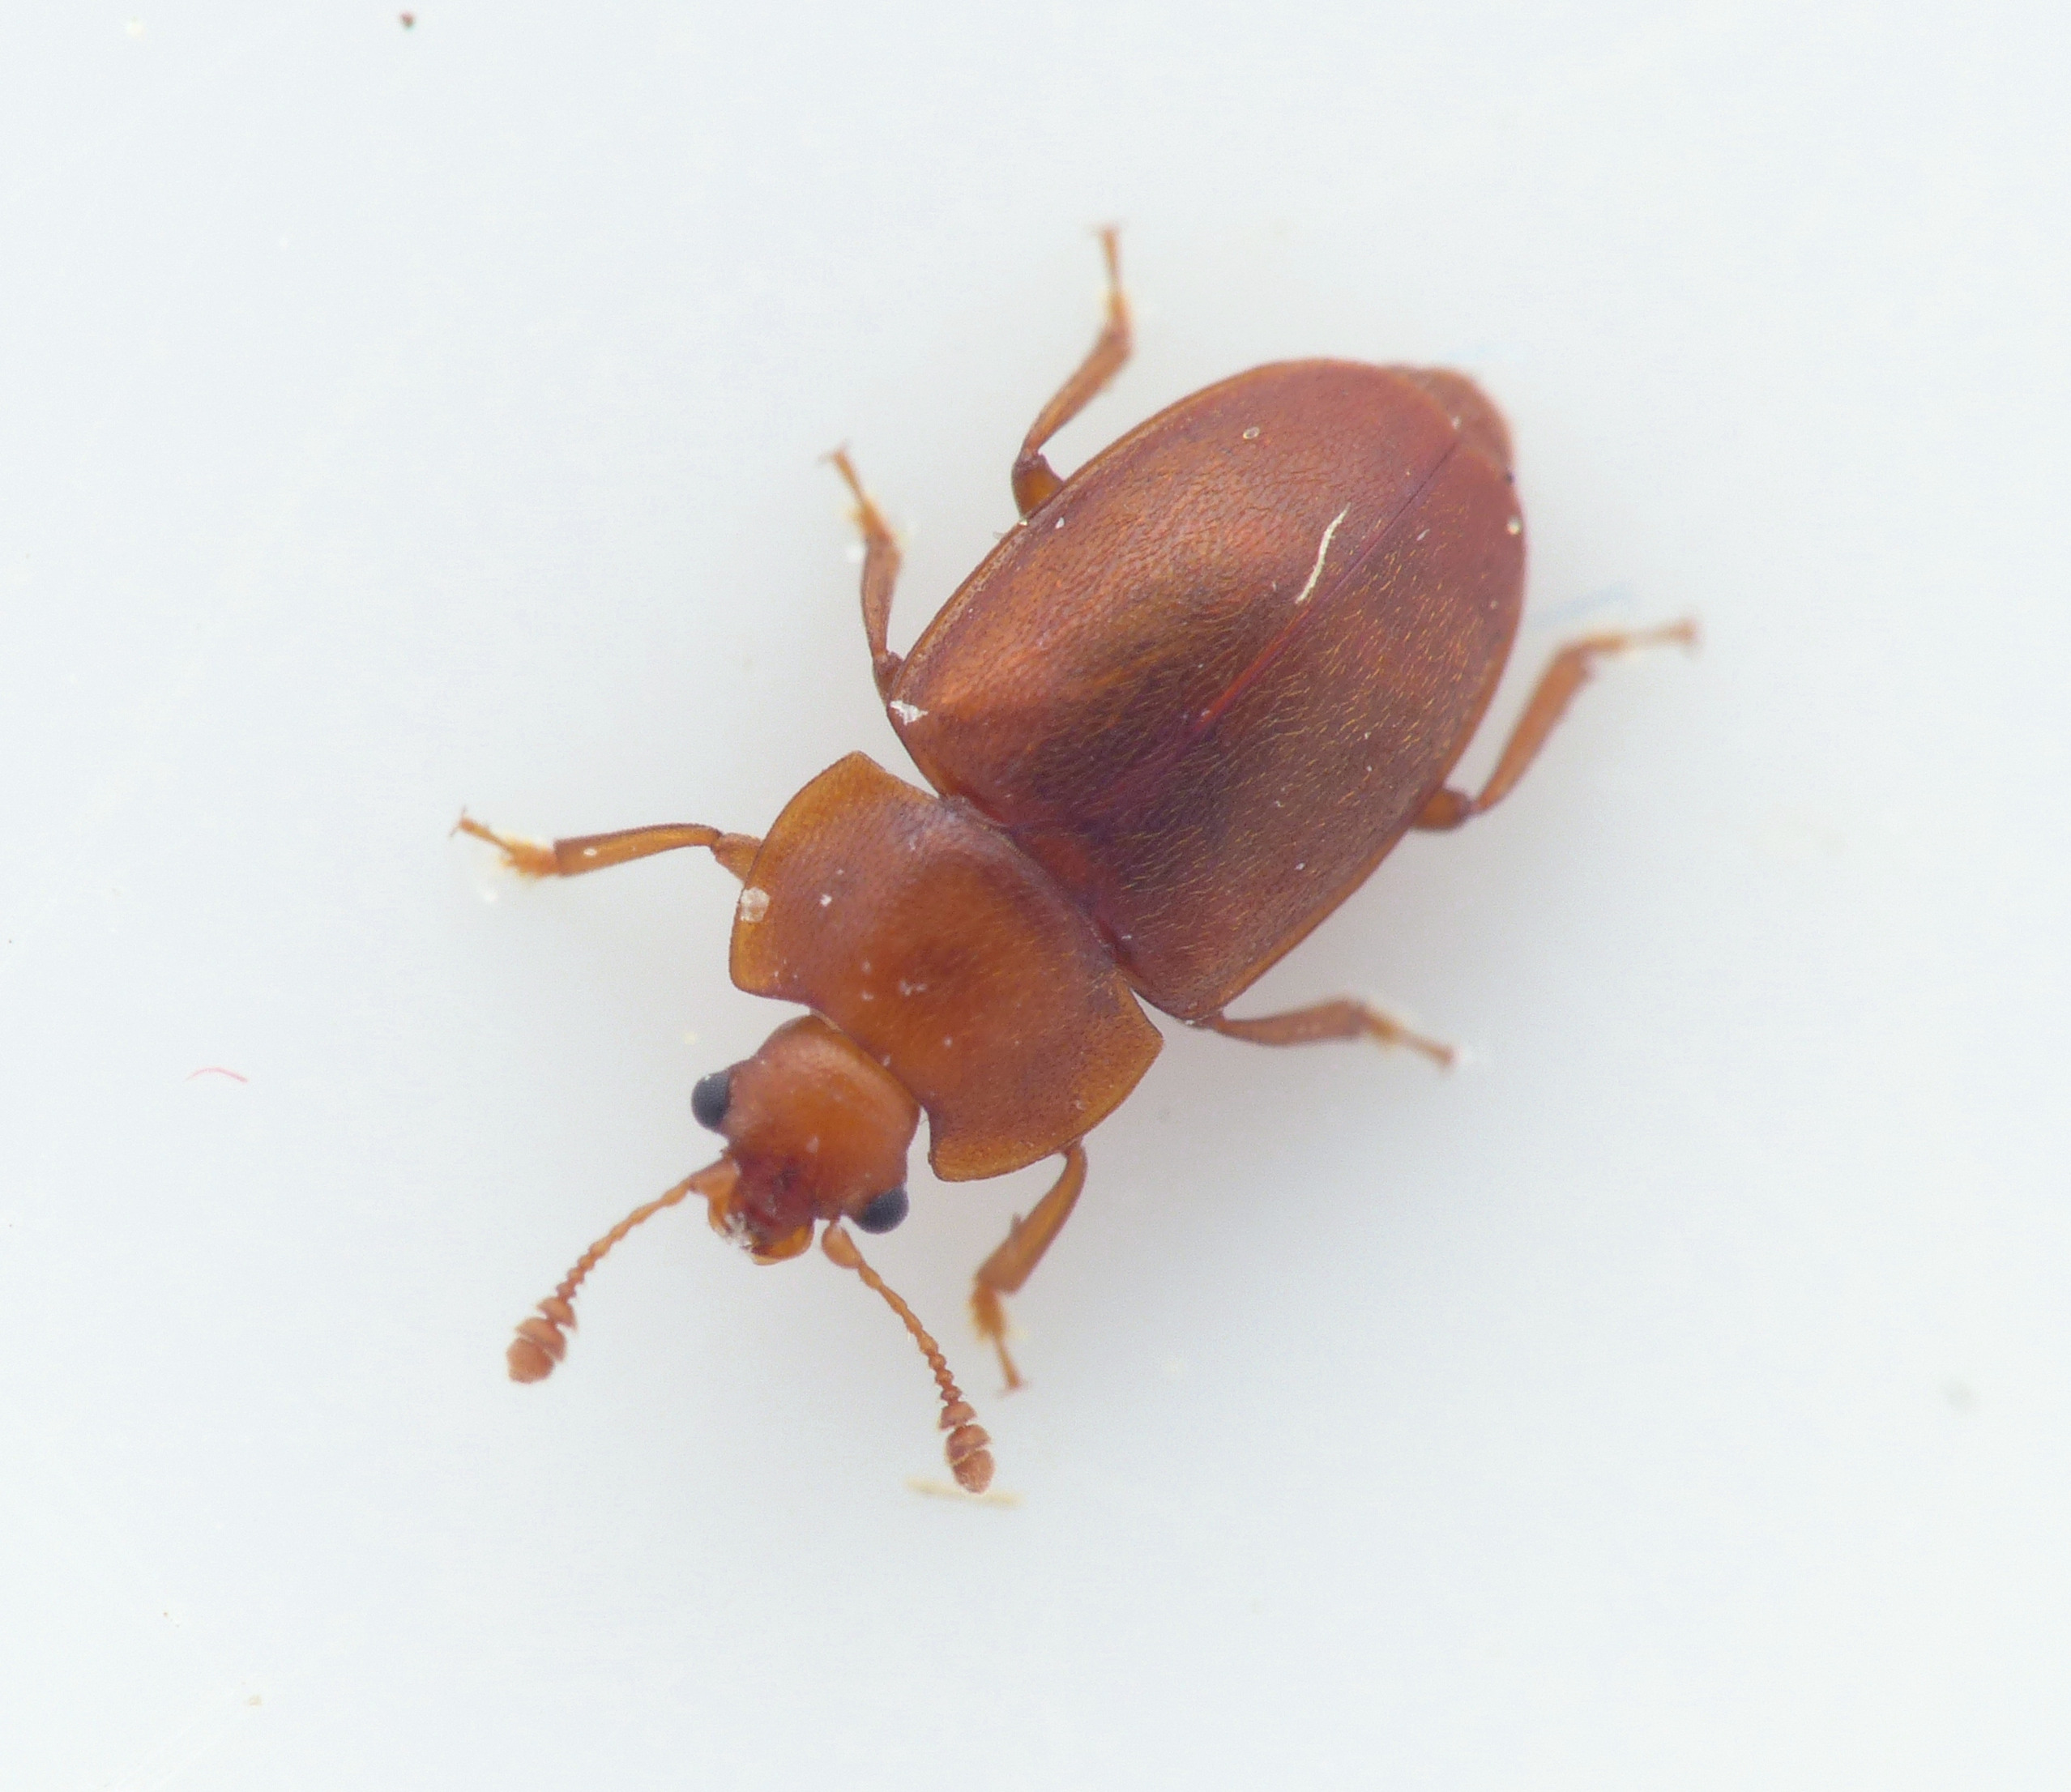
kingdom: Animalia
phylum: Arthropoda
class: Insecta
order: Coleoptera
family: Nitidulidae
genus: Epuraea
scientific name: Epuraea aestiva
